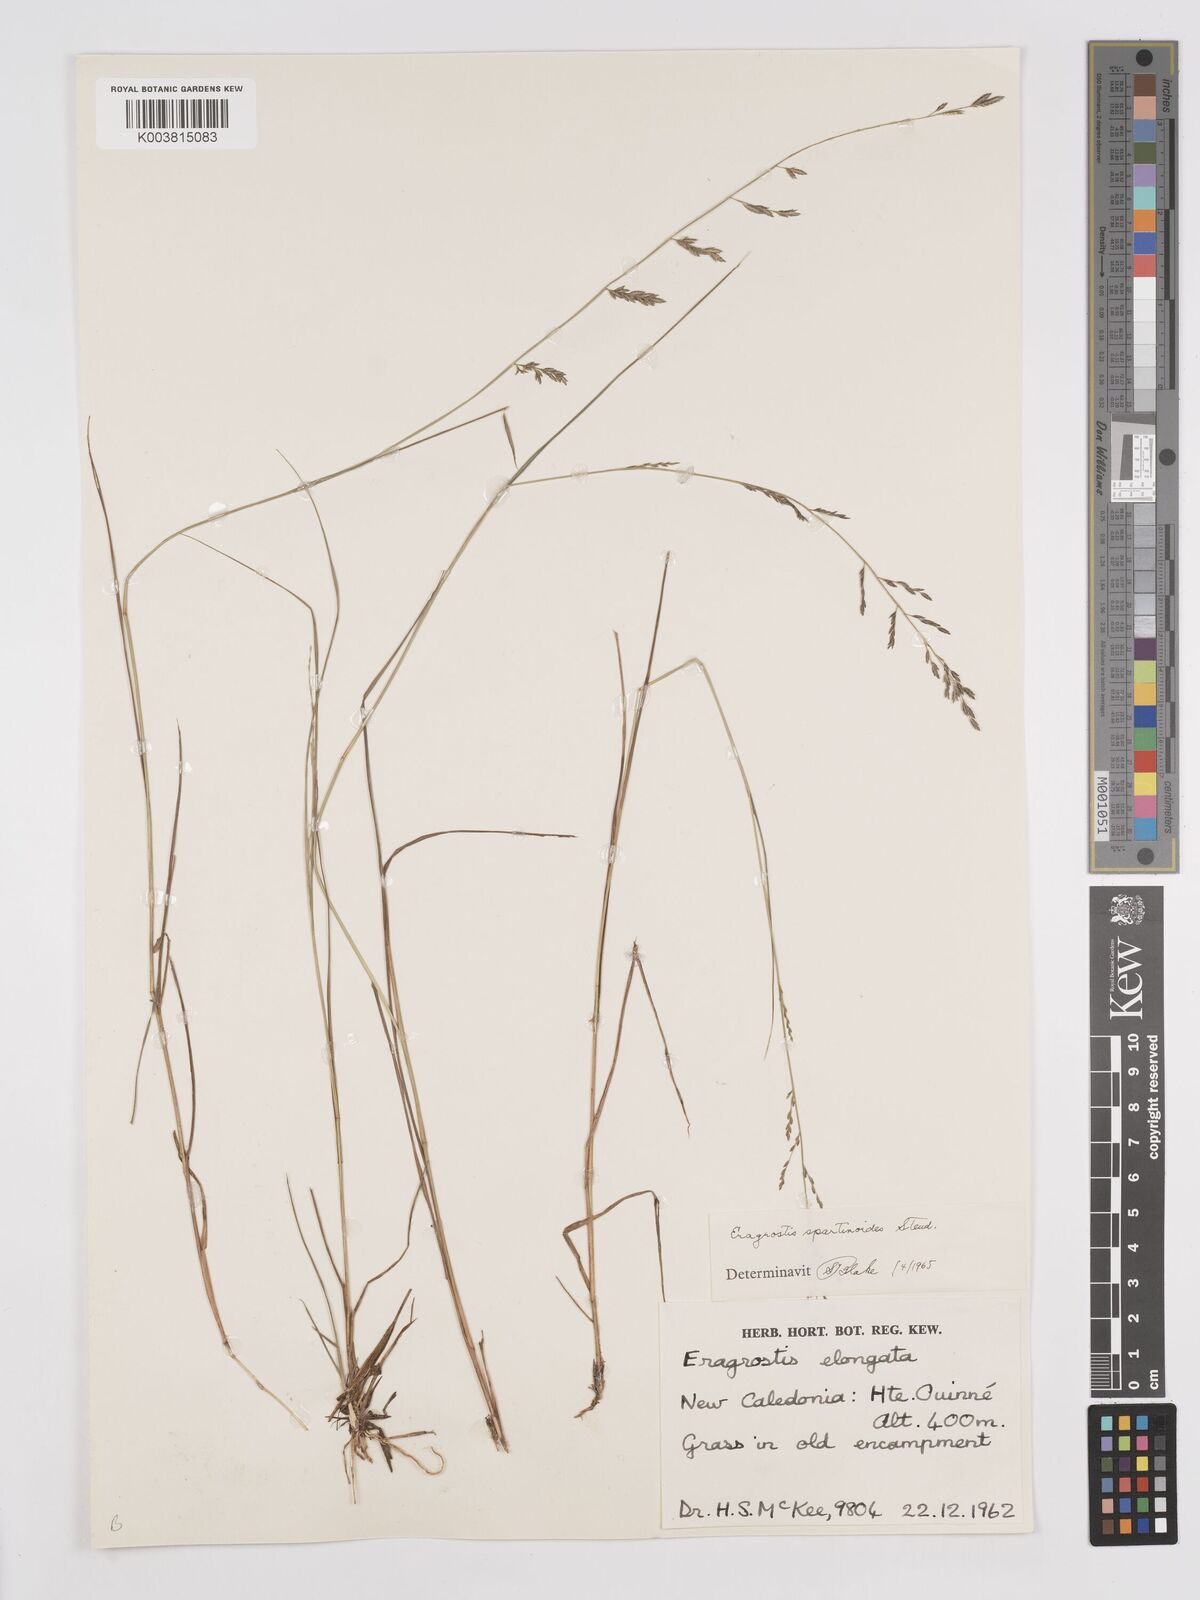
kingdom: Plantae
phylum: Tracheophyta
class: Liliopsida
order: Poales
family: Poaceae
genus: Eragrostis
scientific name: Eragrostis brownii
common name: Lovegrass
